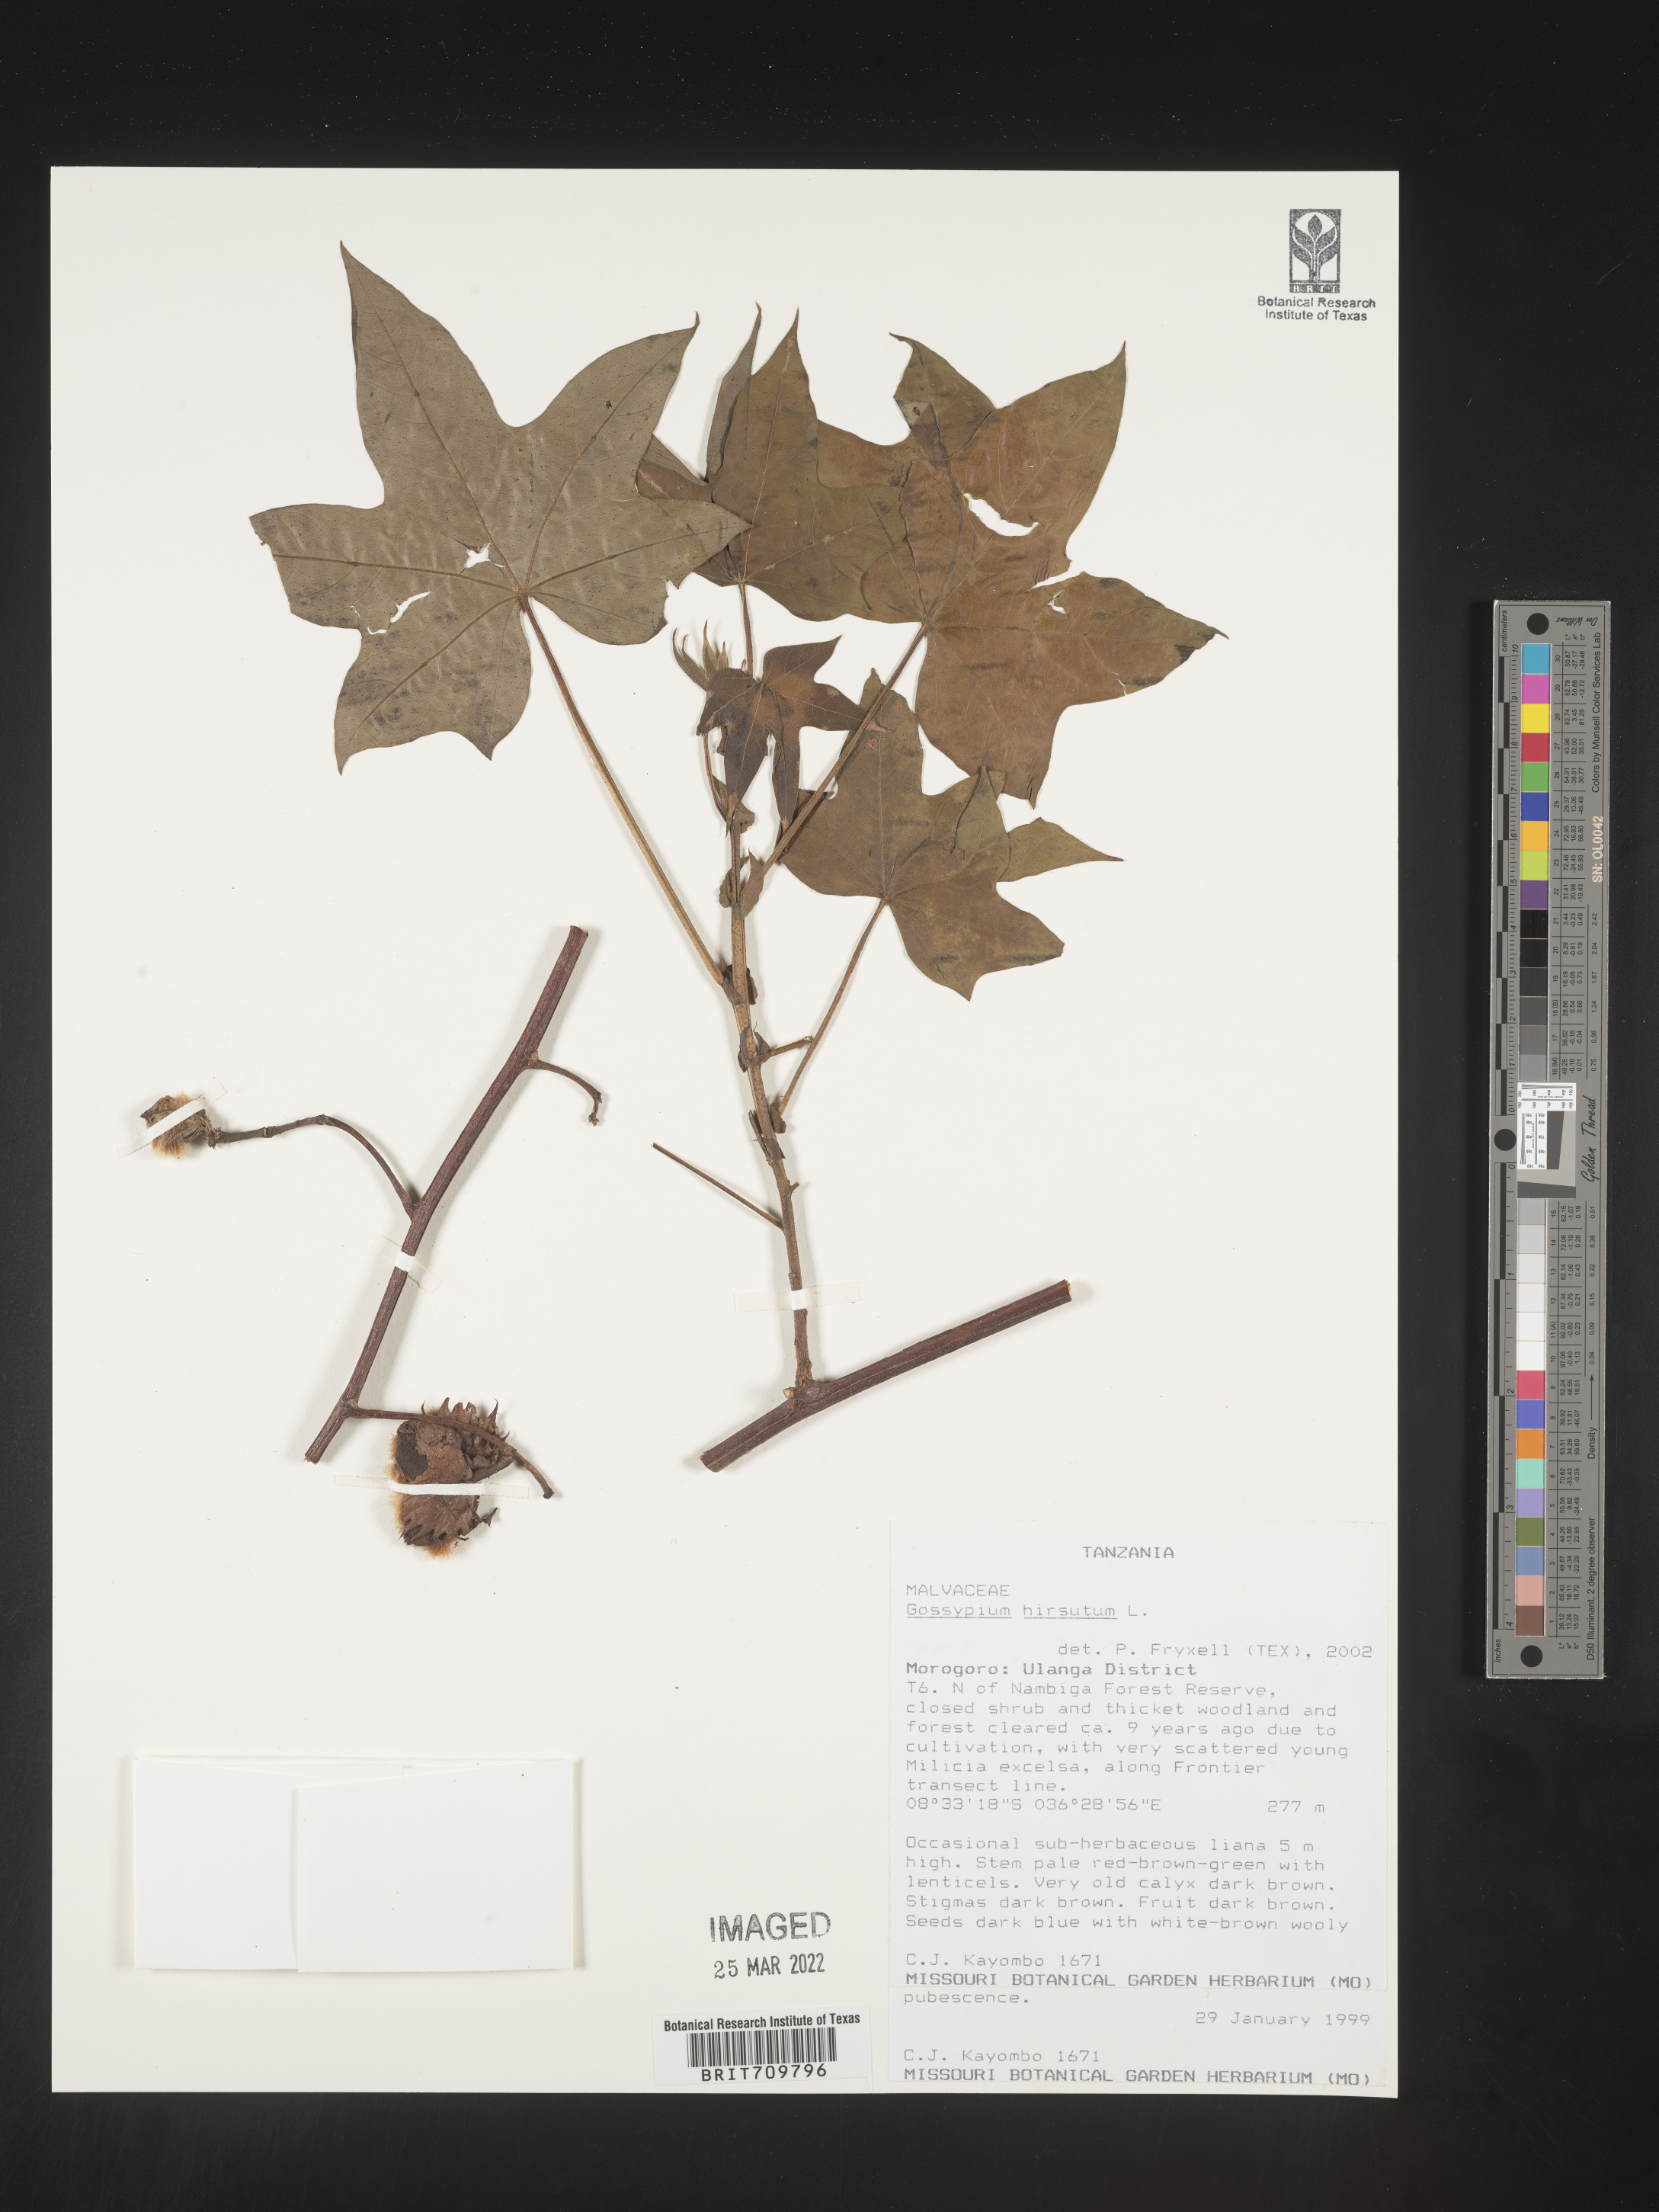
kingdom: Plantae
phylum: Tracheophyta
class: Magnoliopsida
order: Malvales
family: Malvaceae
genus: Gossypium
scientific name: Gossypium
